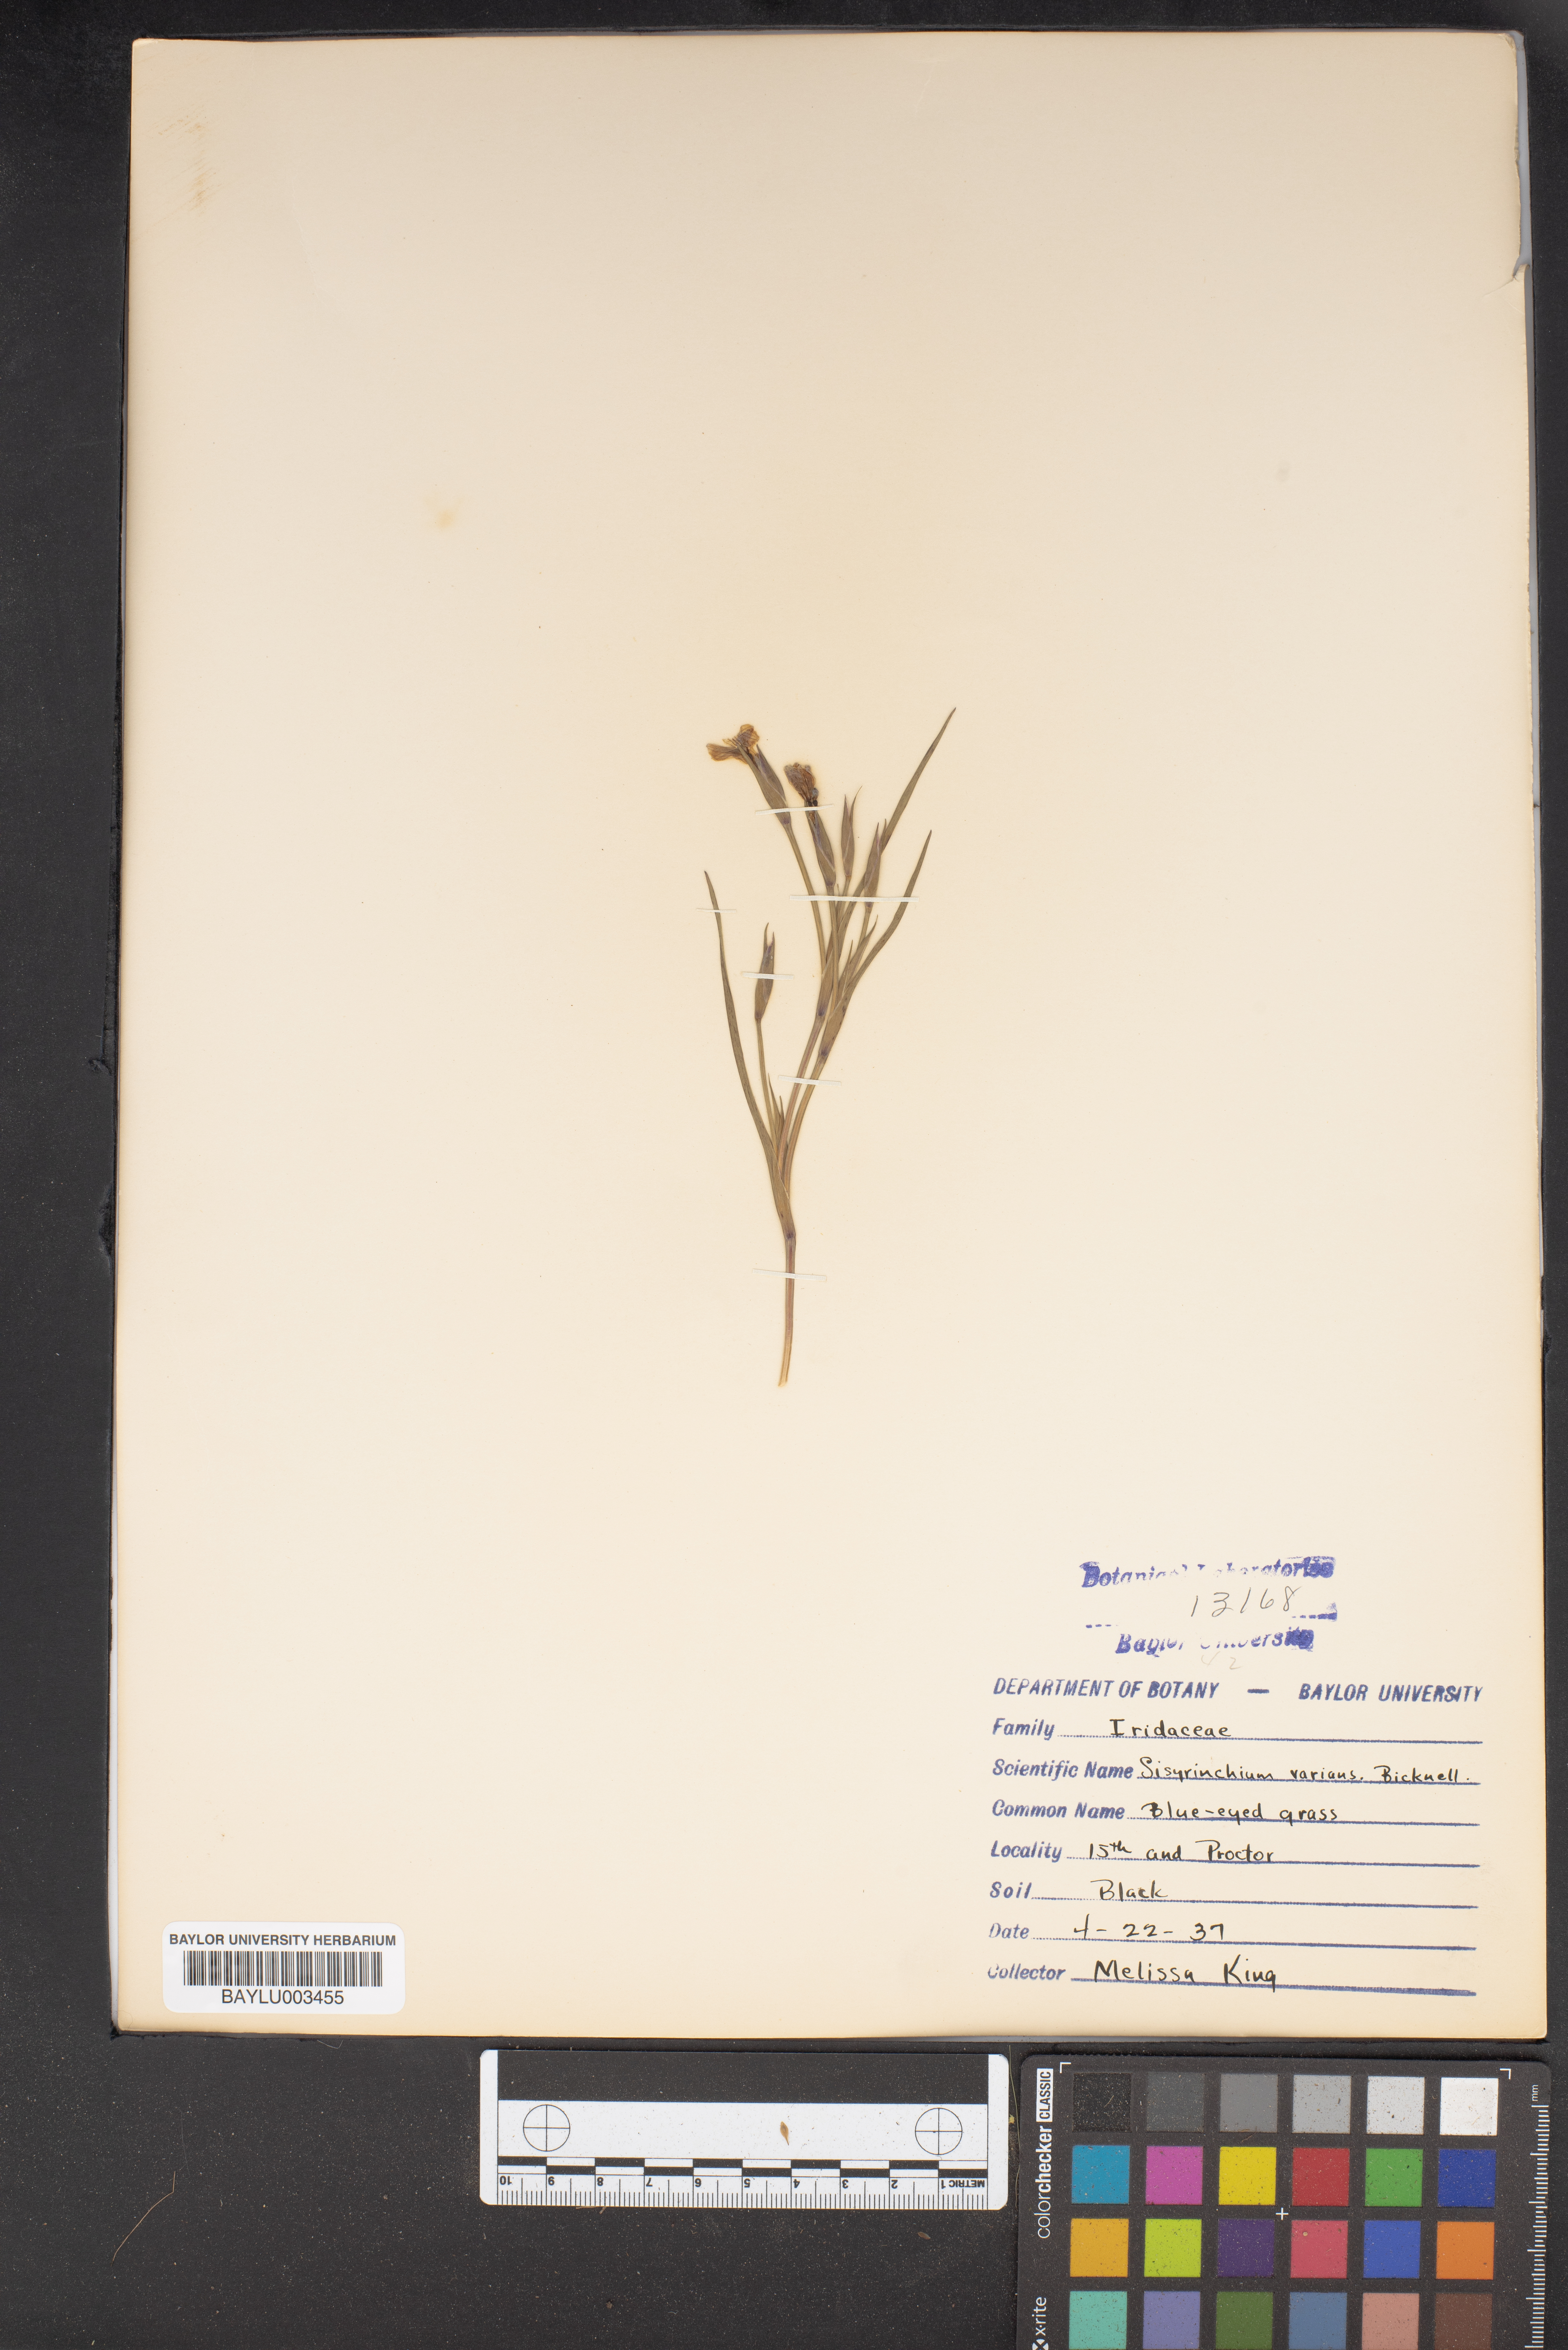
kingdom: Plantae
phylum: Tracheophyta
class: Liliopsida
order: Asparagales
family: Iridaceae
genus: Sisyrinchium
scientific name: Sisyrinchium nashii
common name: Nash's blue-eyed-grass
